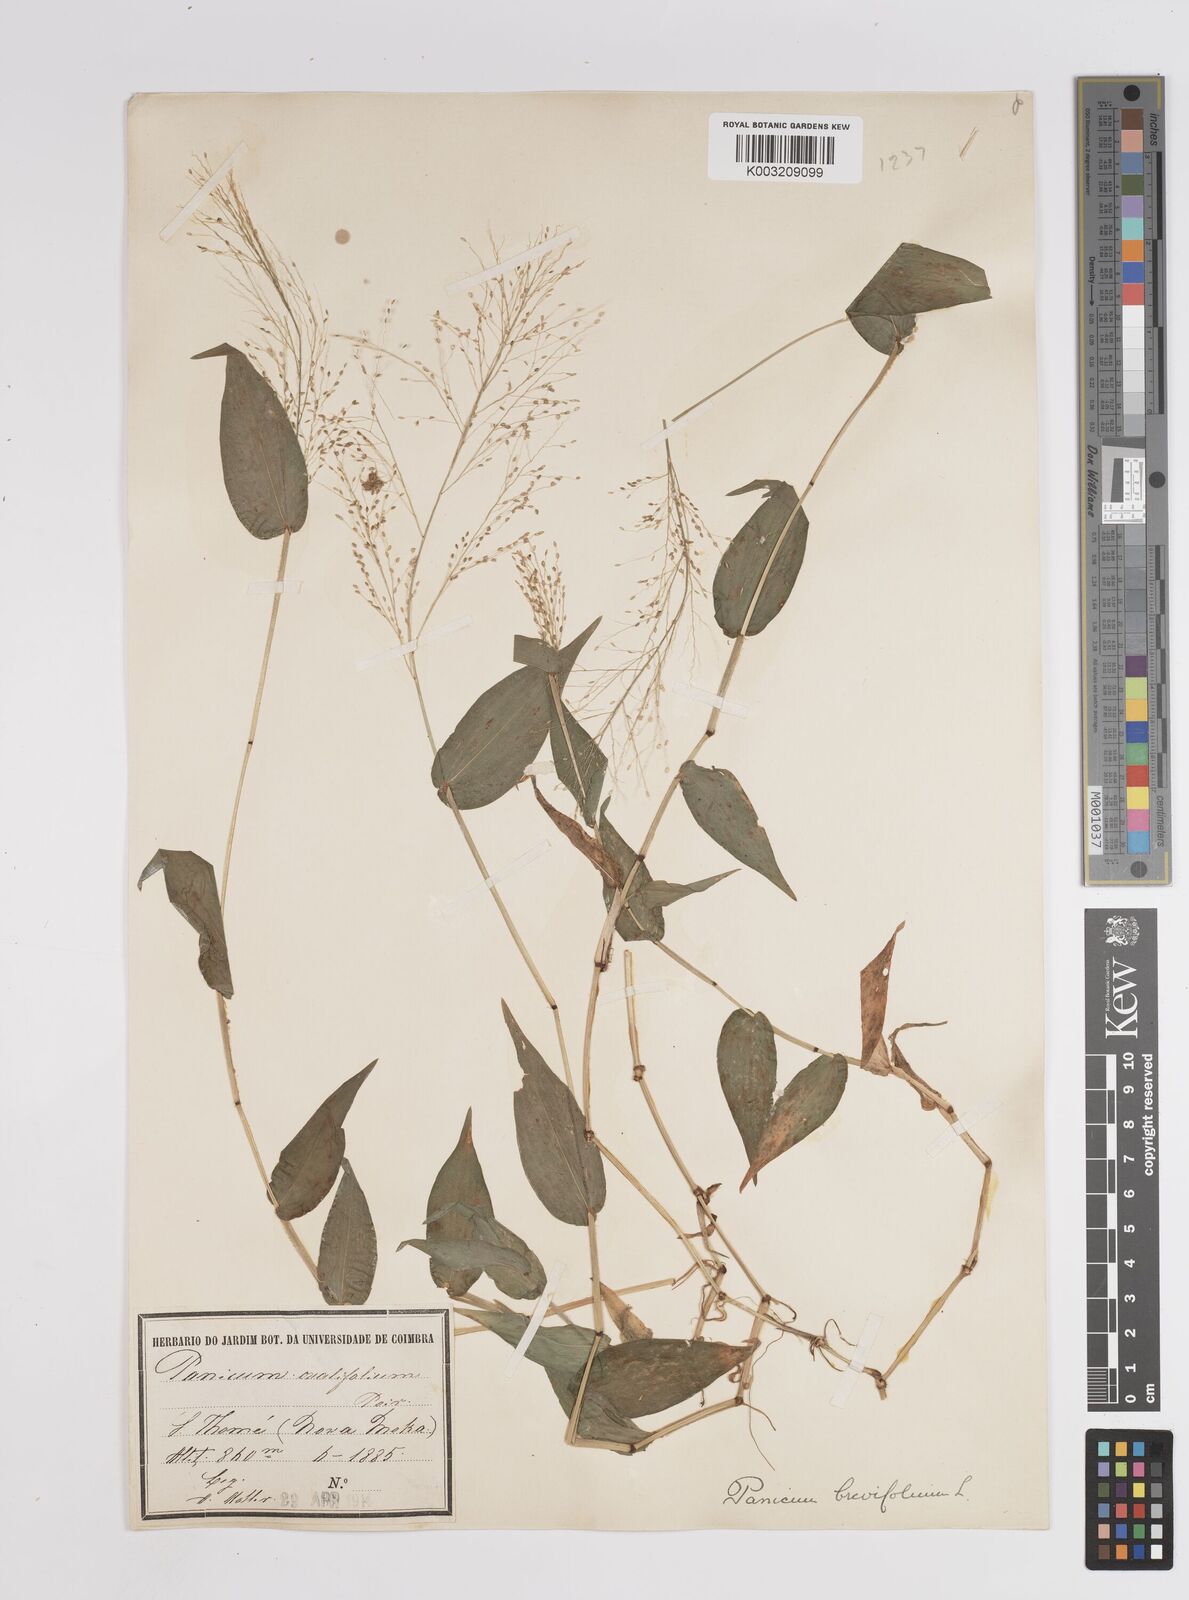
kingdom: Plantae
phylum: Tracheophyta
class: Liliopsida
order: Poales
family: Poaceae
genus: Panicum
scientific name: Panicum brevifolium
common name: Shortleaf panic grass
